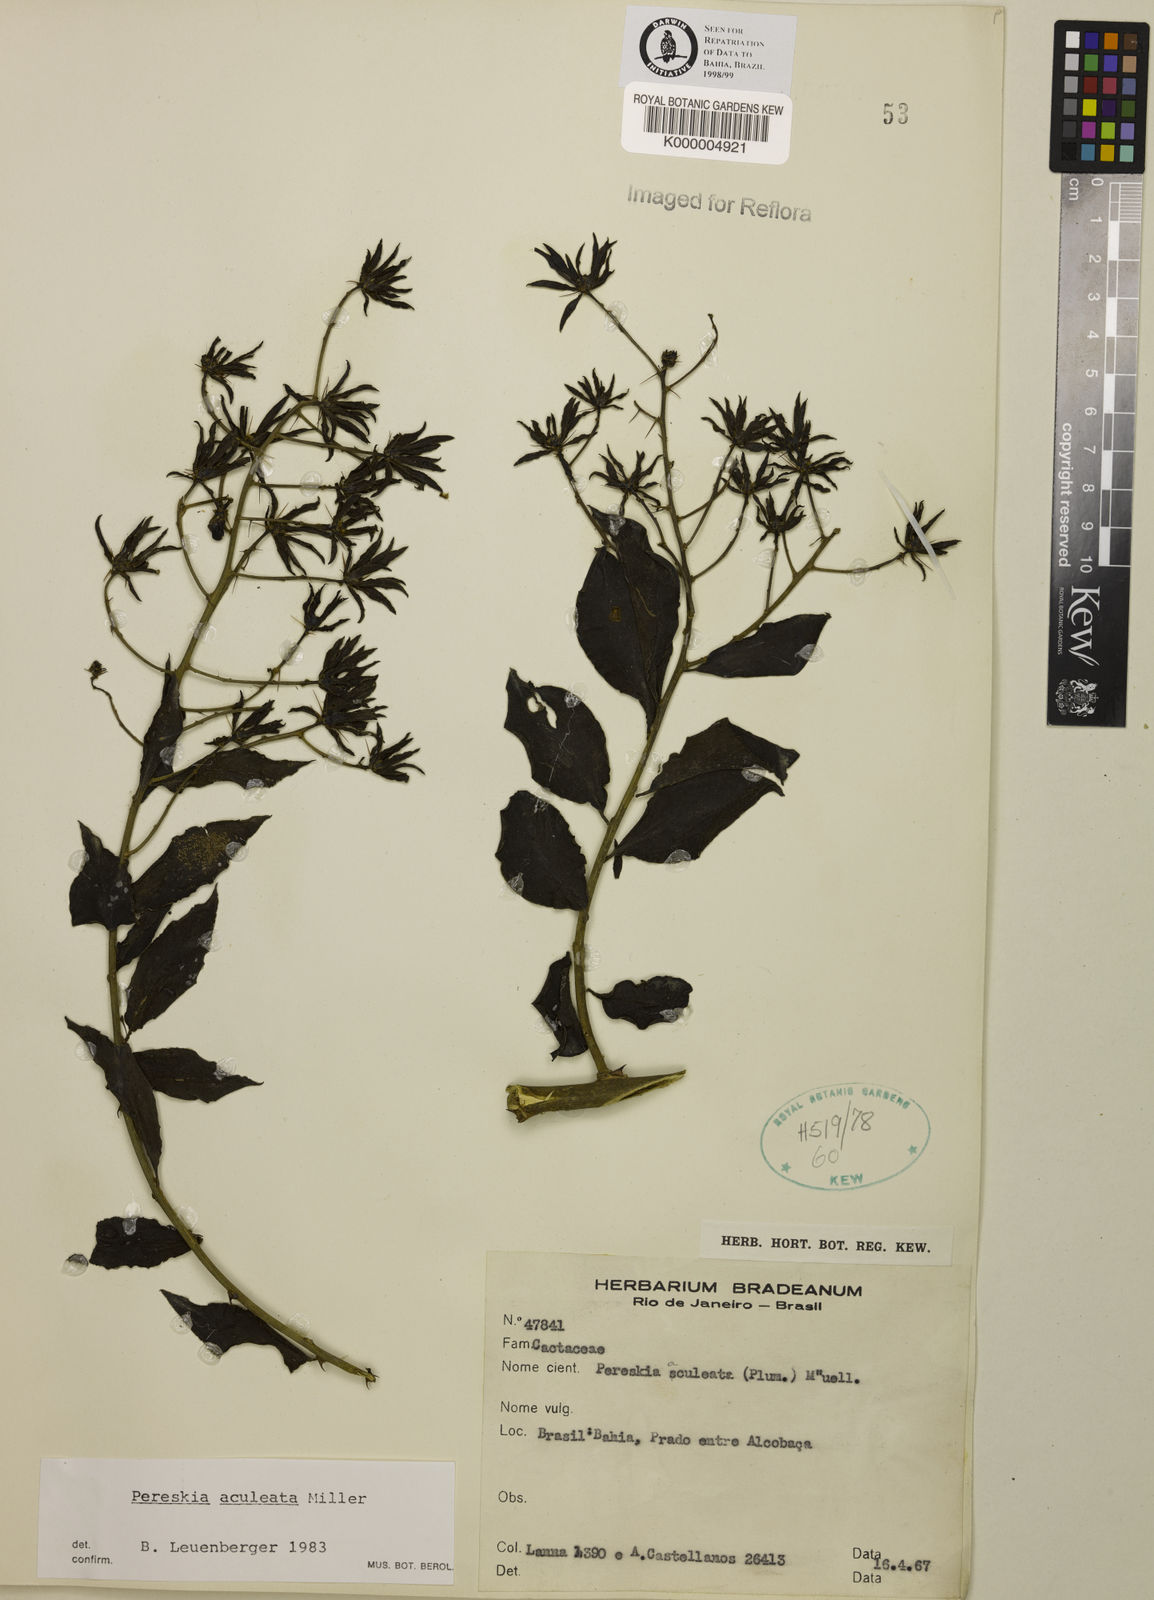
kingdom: Plantae
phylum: Tracheophyta
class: Magnoliopsida
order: Caryophyllales
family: Cactaceae
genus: Pereskia
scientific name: Pereskia aculeata
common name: Barbados gooseberry
